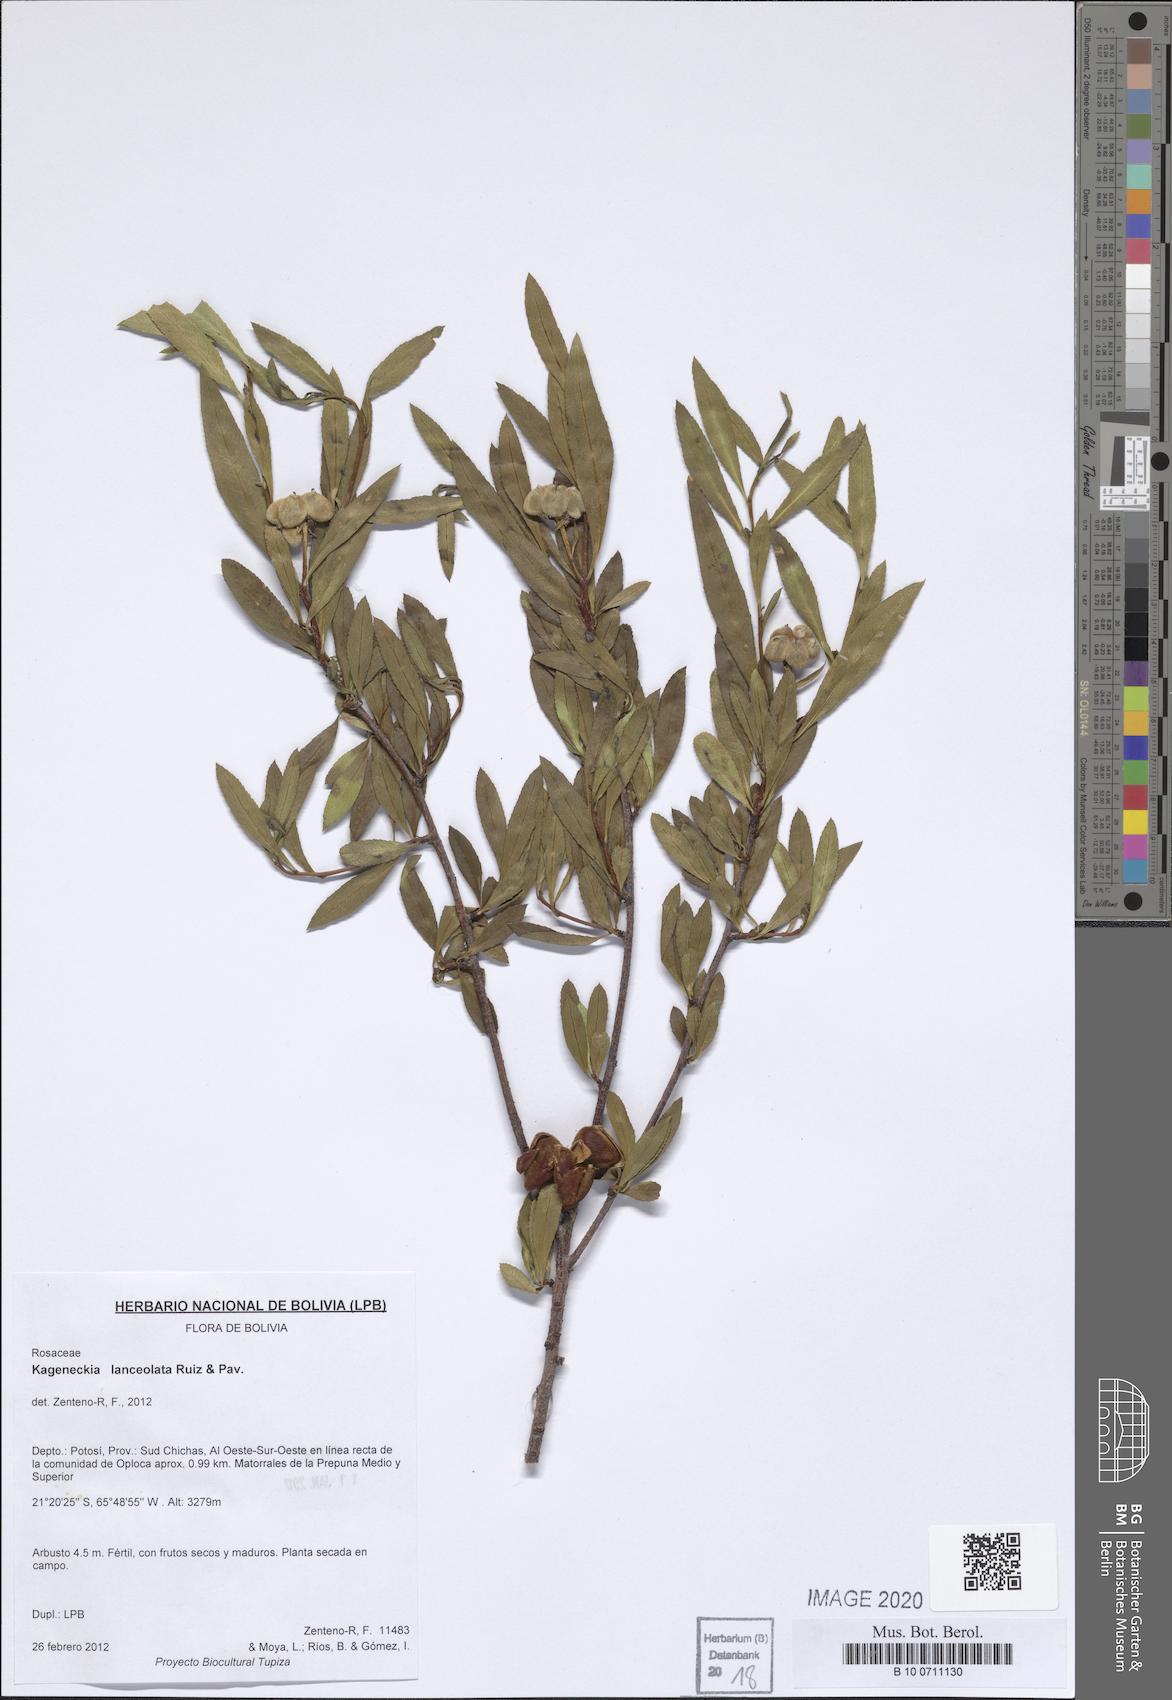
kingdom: Plantae
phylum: Tracheophyta
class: Magnoliopsida
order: Rosales
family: Rosaceae
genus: Kageneckia
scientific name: Kageneckia lanceolata
